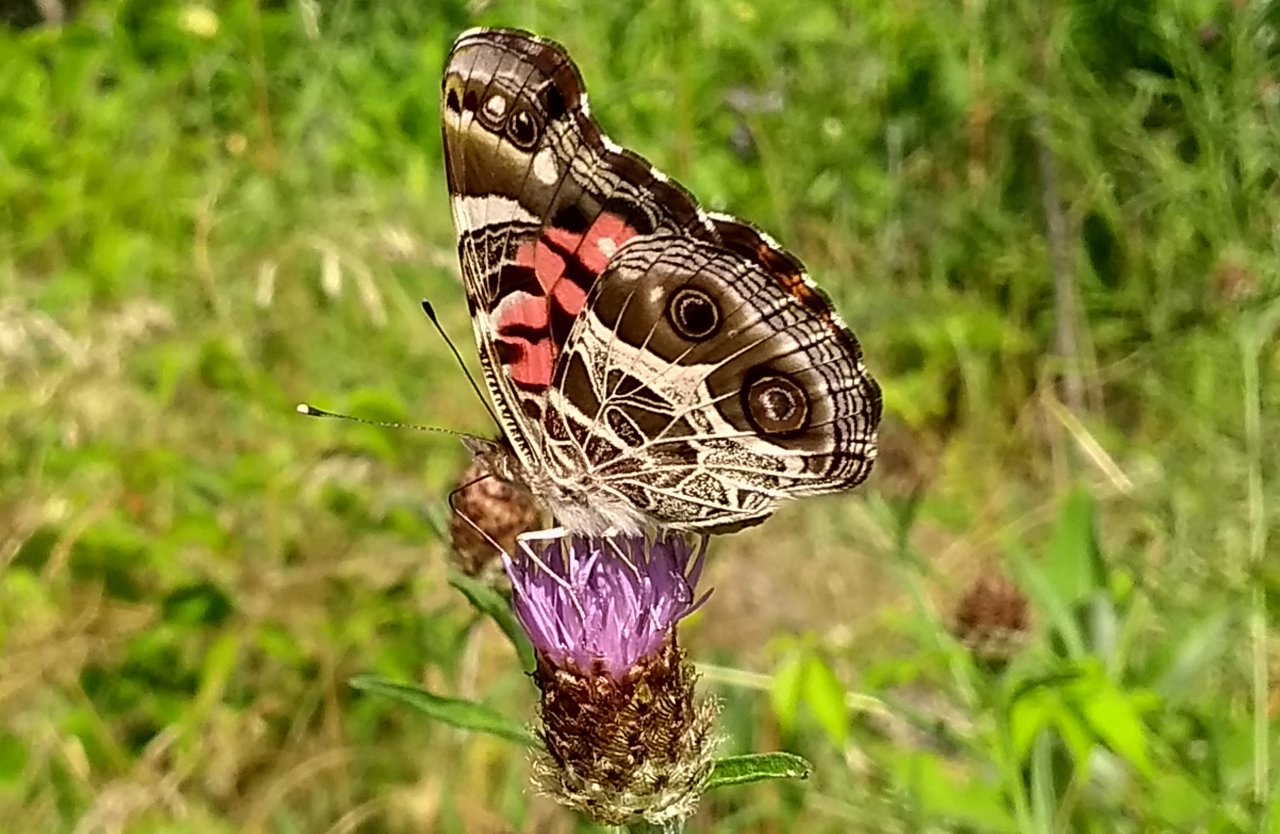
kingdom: Animalia
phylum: Arthropoda
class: Insecta
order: Lepidoptera
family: Nymphalidae
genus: Vanessa
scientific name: Vanessa virginiensis
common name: American Lady
